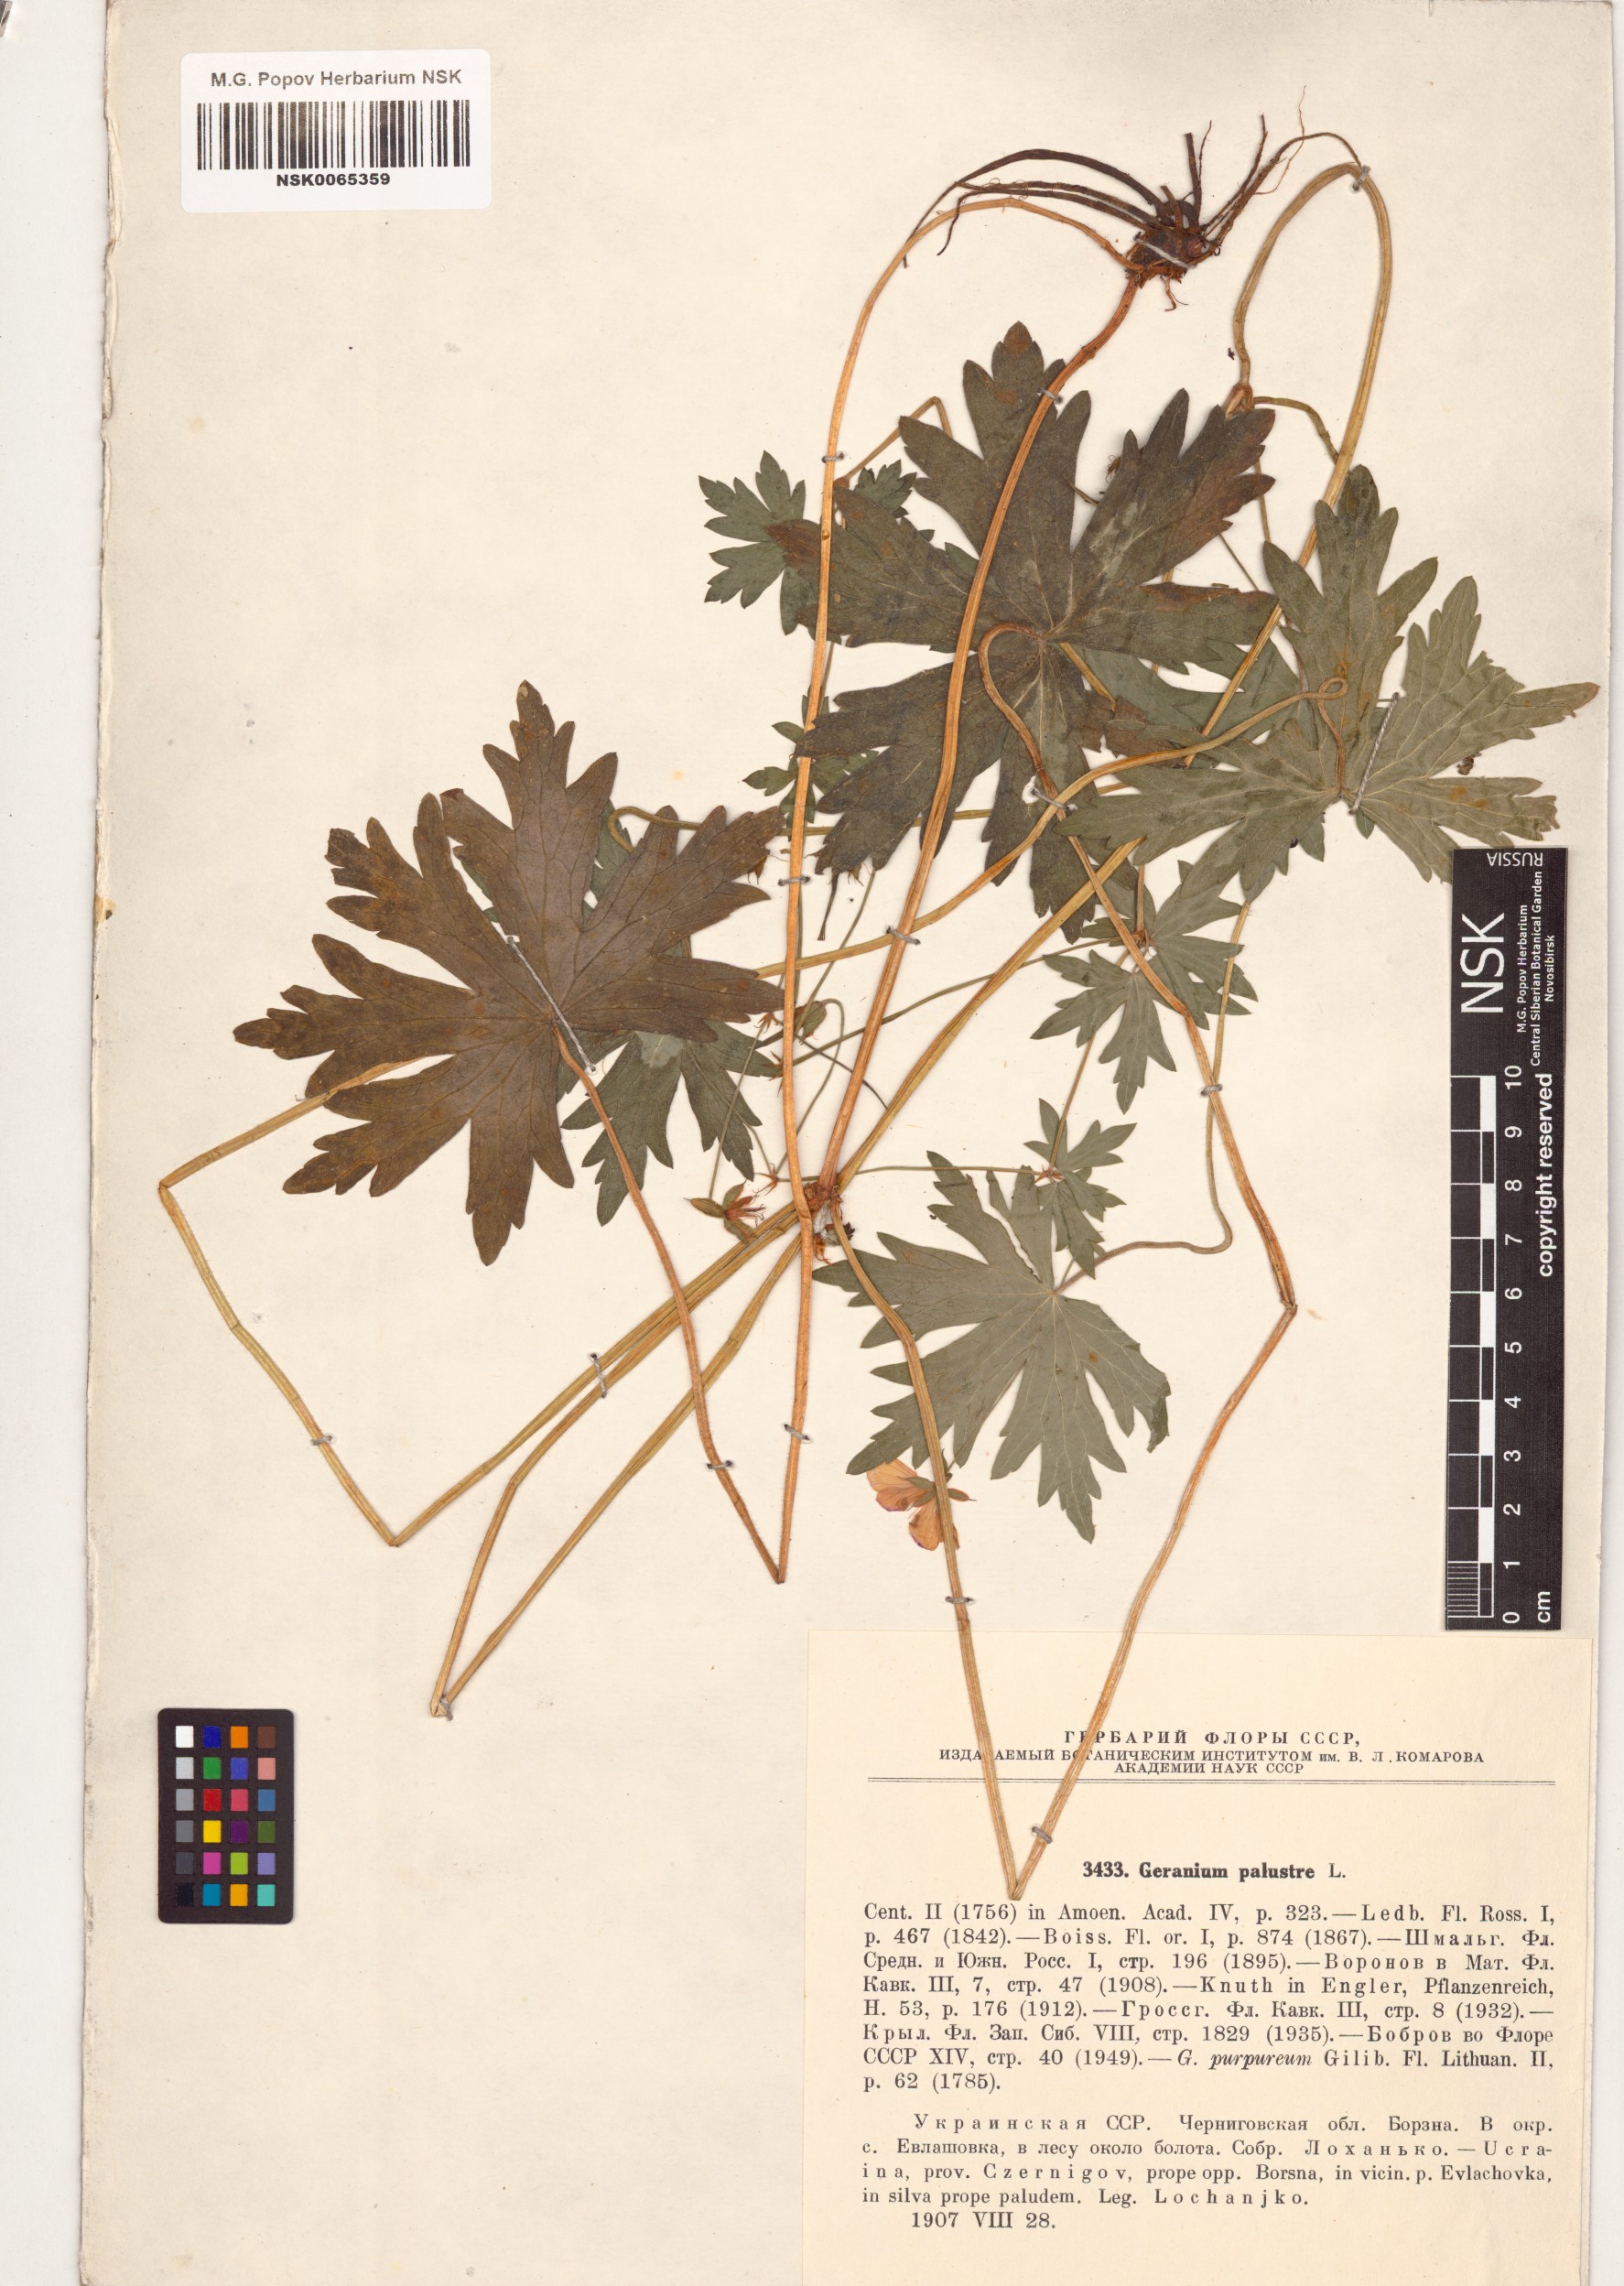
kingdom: Plantae
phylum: Tracheophyta
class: Magnoliopsida
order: Geraniales
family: Geraniaceae
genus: Geranium
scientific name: Geranium palustre
